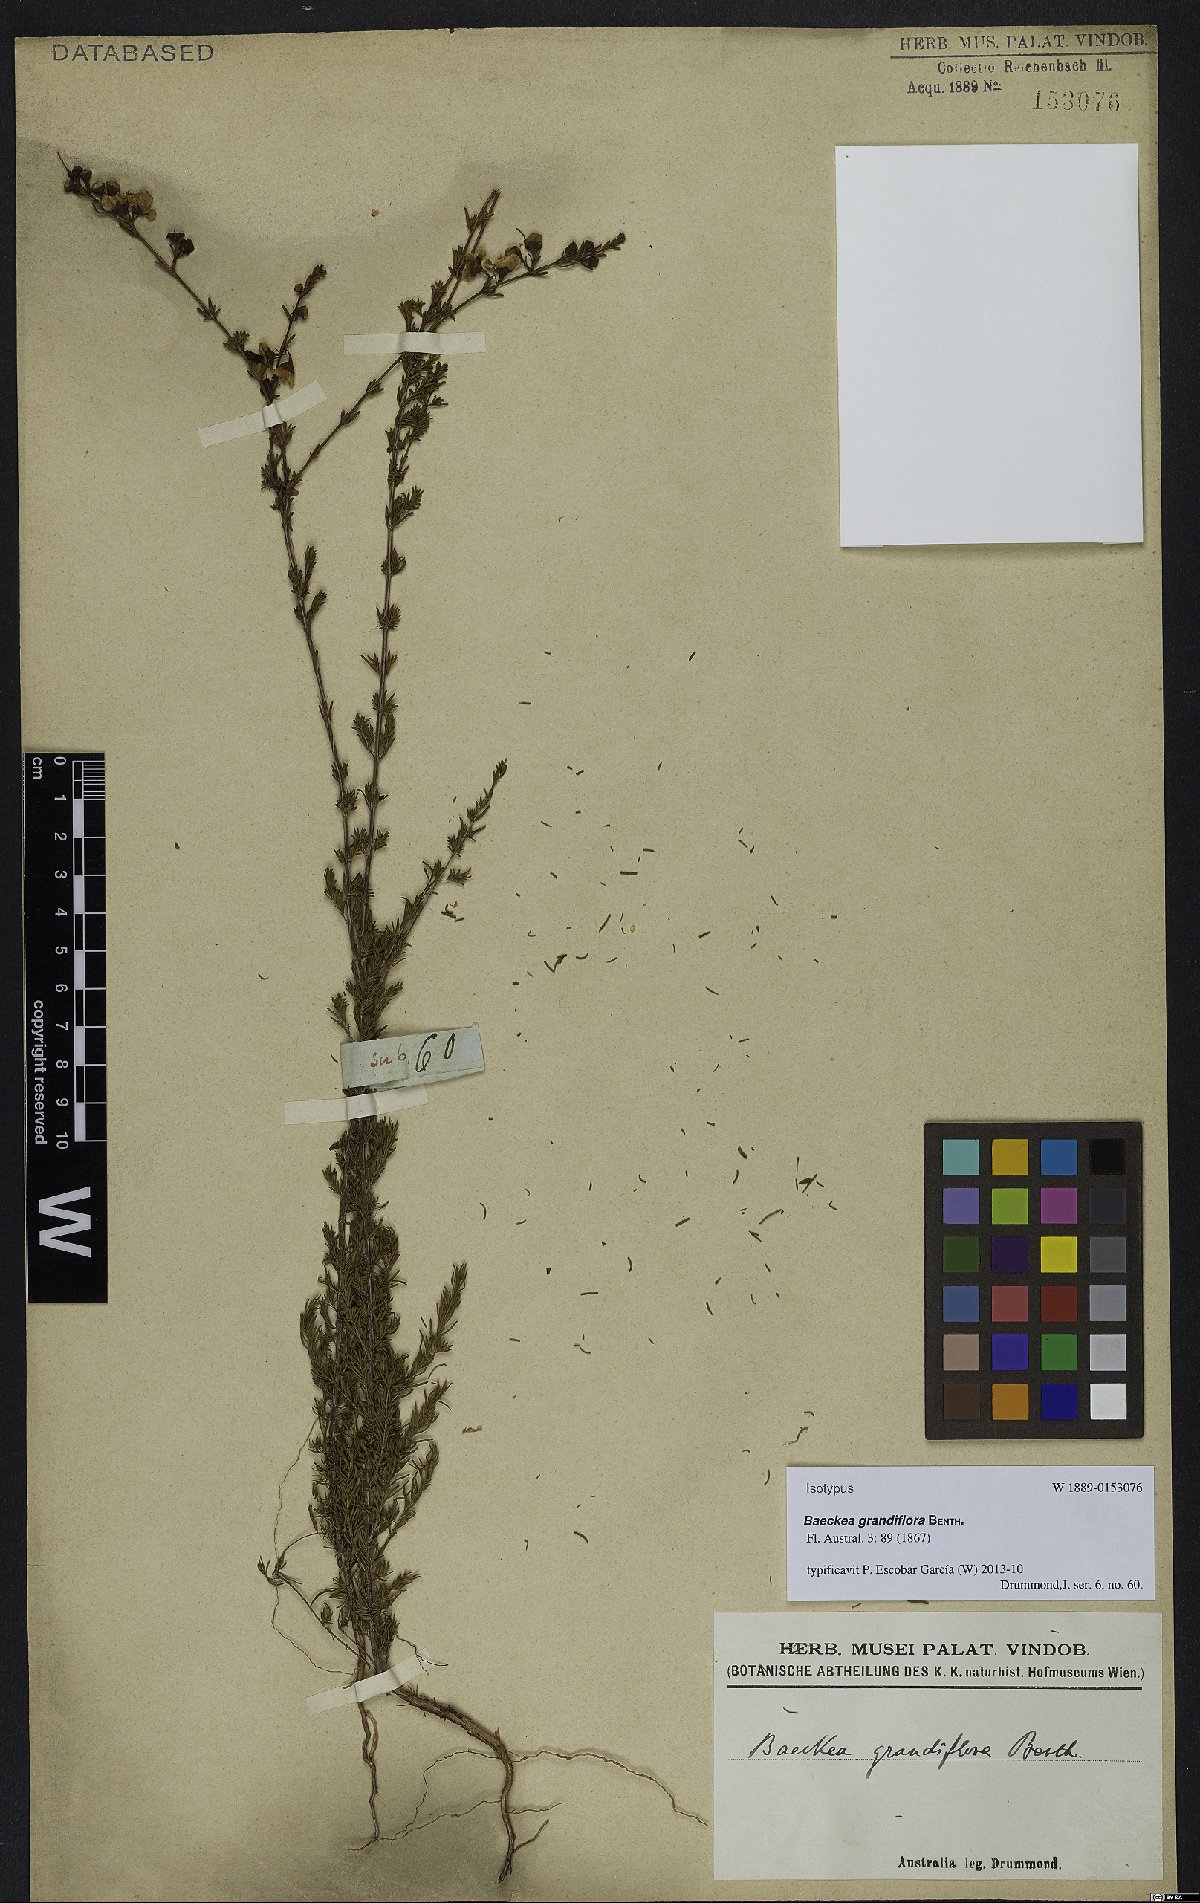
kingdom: Plantae
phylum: Tracheophyta
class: Magnoliopsida
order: Myrtales
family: Myrtaceae
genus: Babingtonia
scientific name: Babingtonia grandiflora
